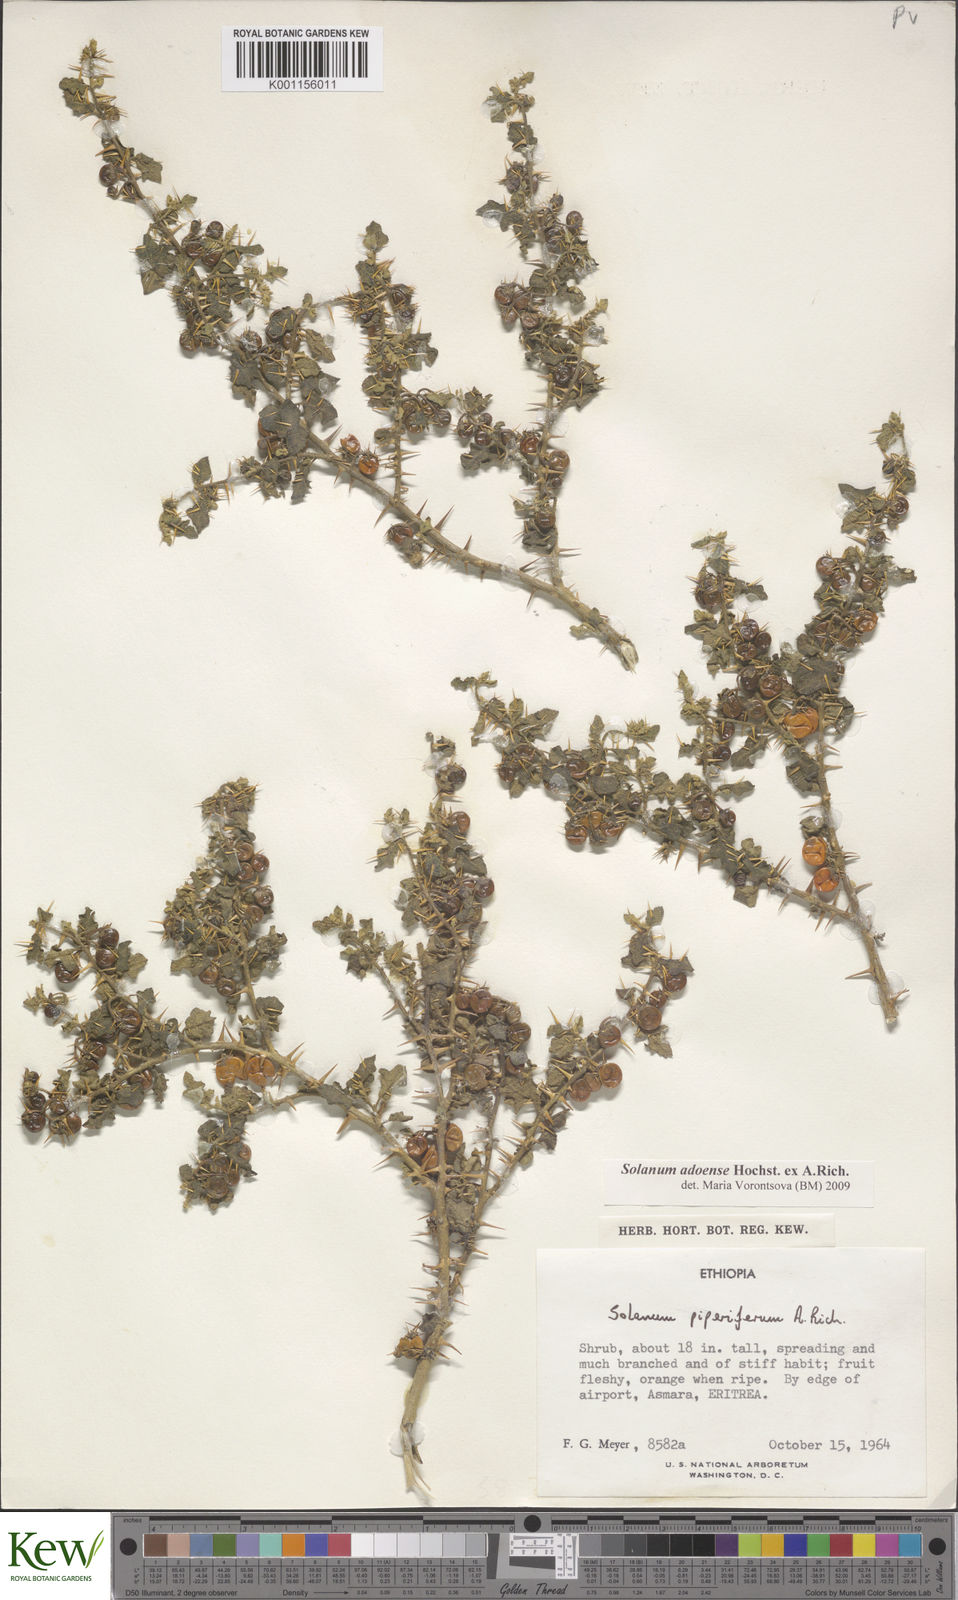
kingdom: Plantae
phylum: Tracheophyta
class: Magnoliopsida
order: Solanales
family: Solanaceae
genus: Solanum
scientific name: Solanum adoense
